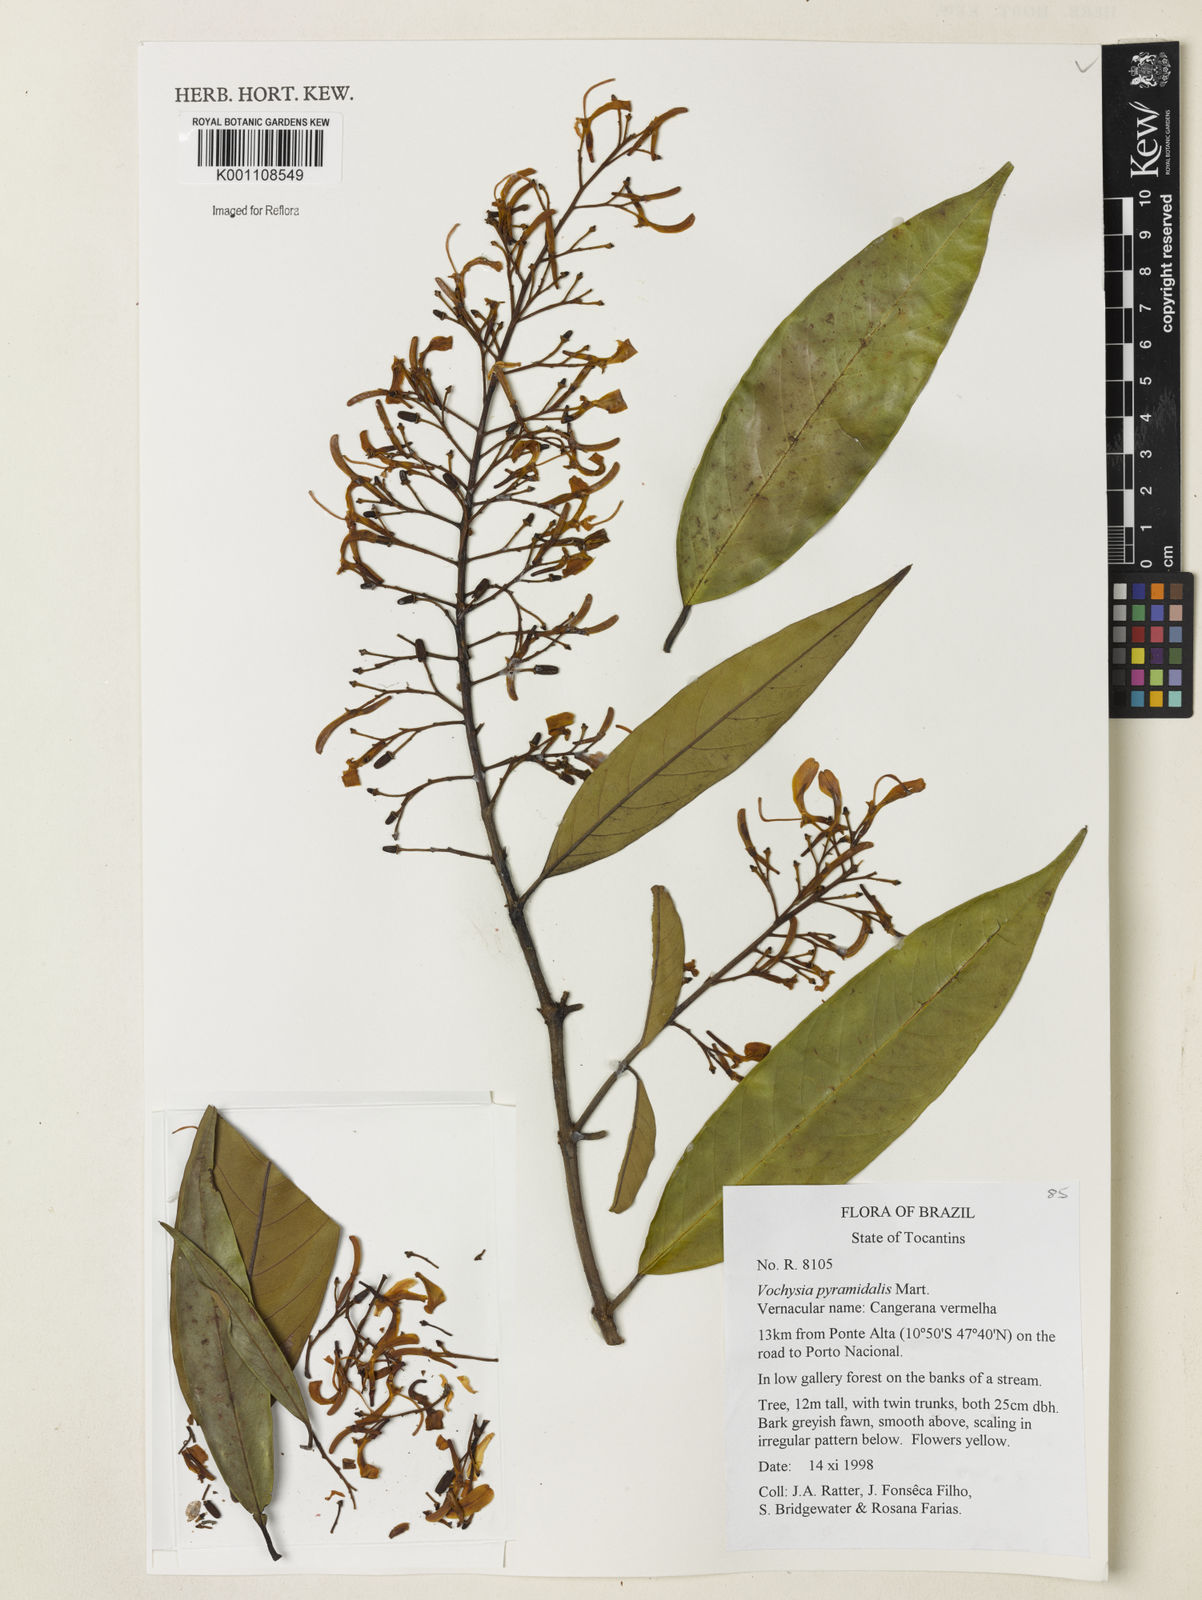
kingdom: Plantae
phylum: Tracheophyta
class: Magnoliopsida
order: Myrtales
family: Vochysiaceae
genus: Vochysia
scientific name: Vochysia pyramidalis
